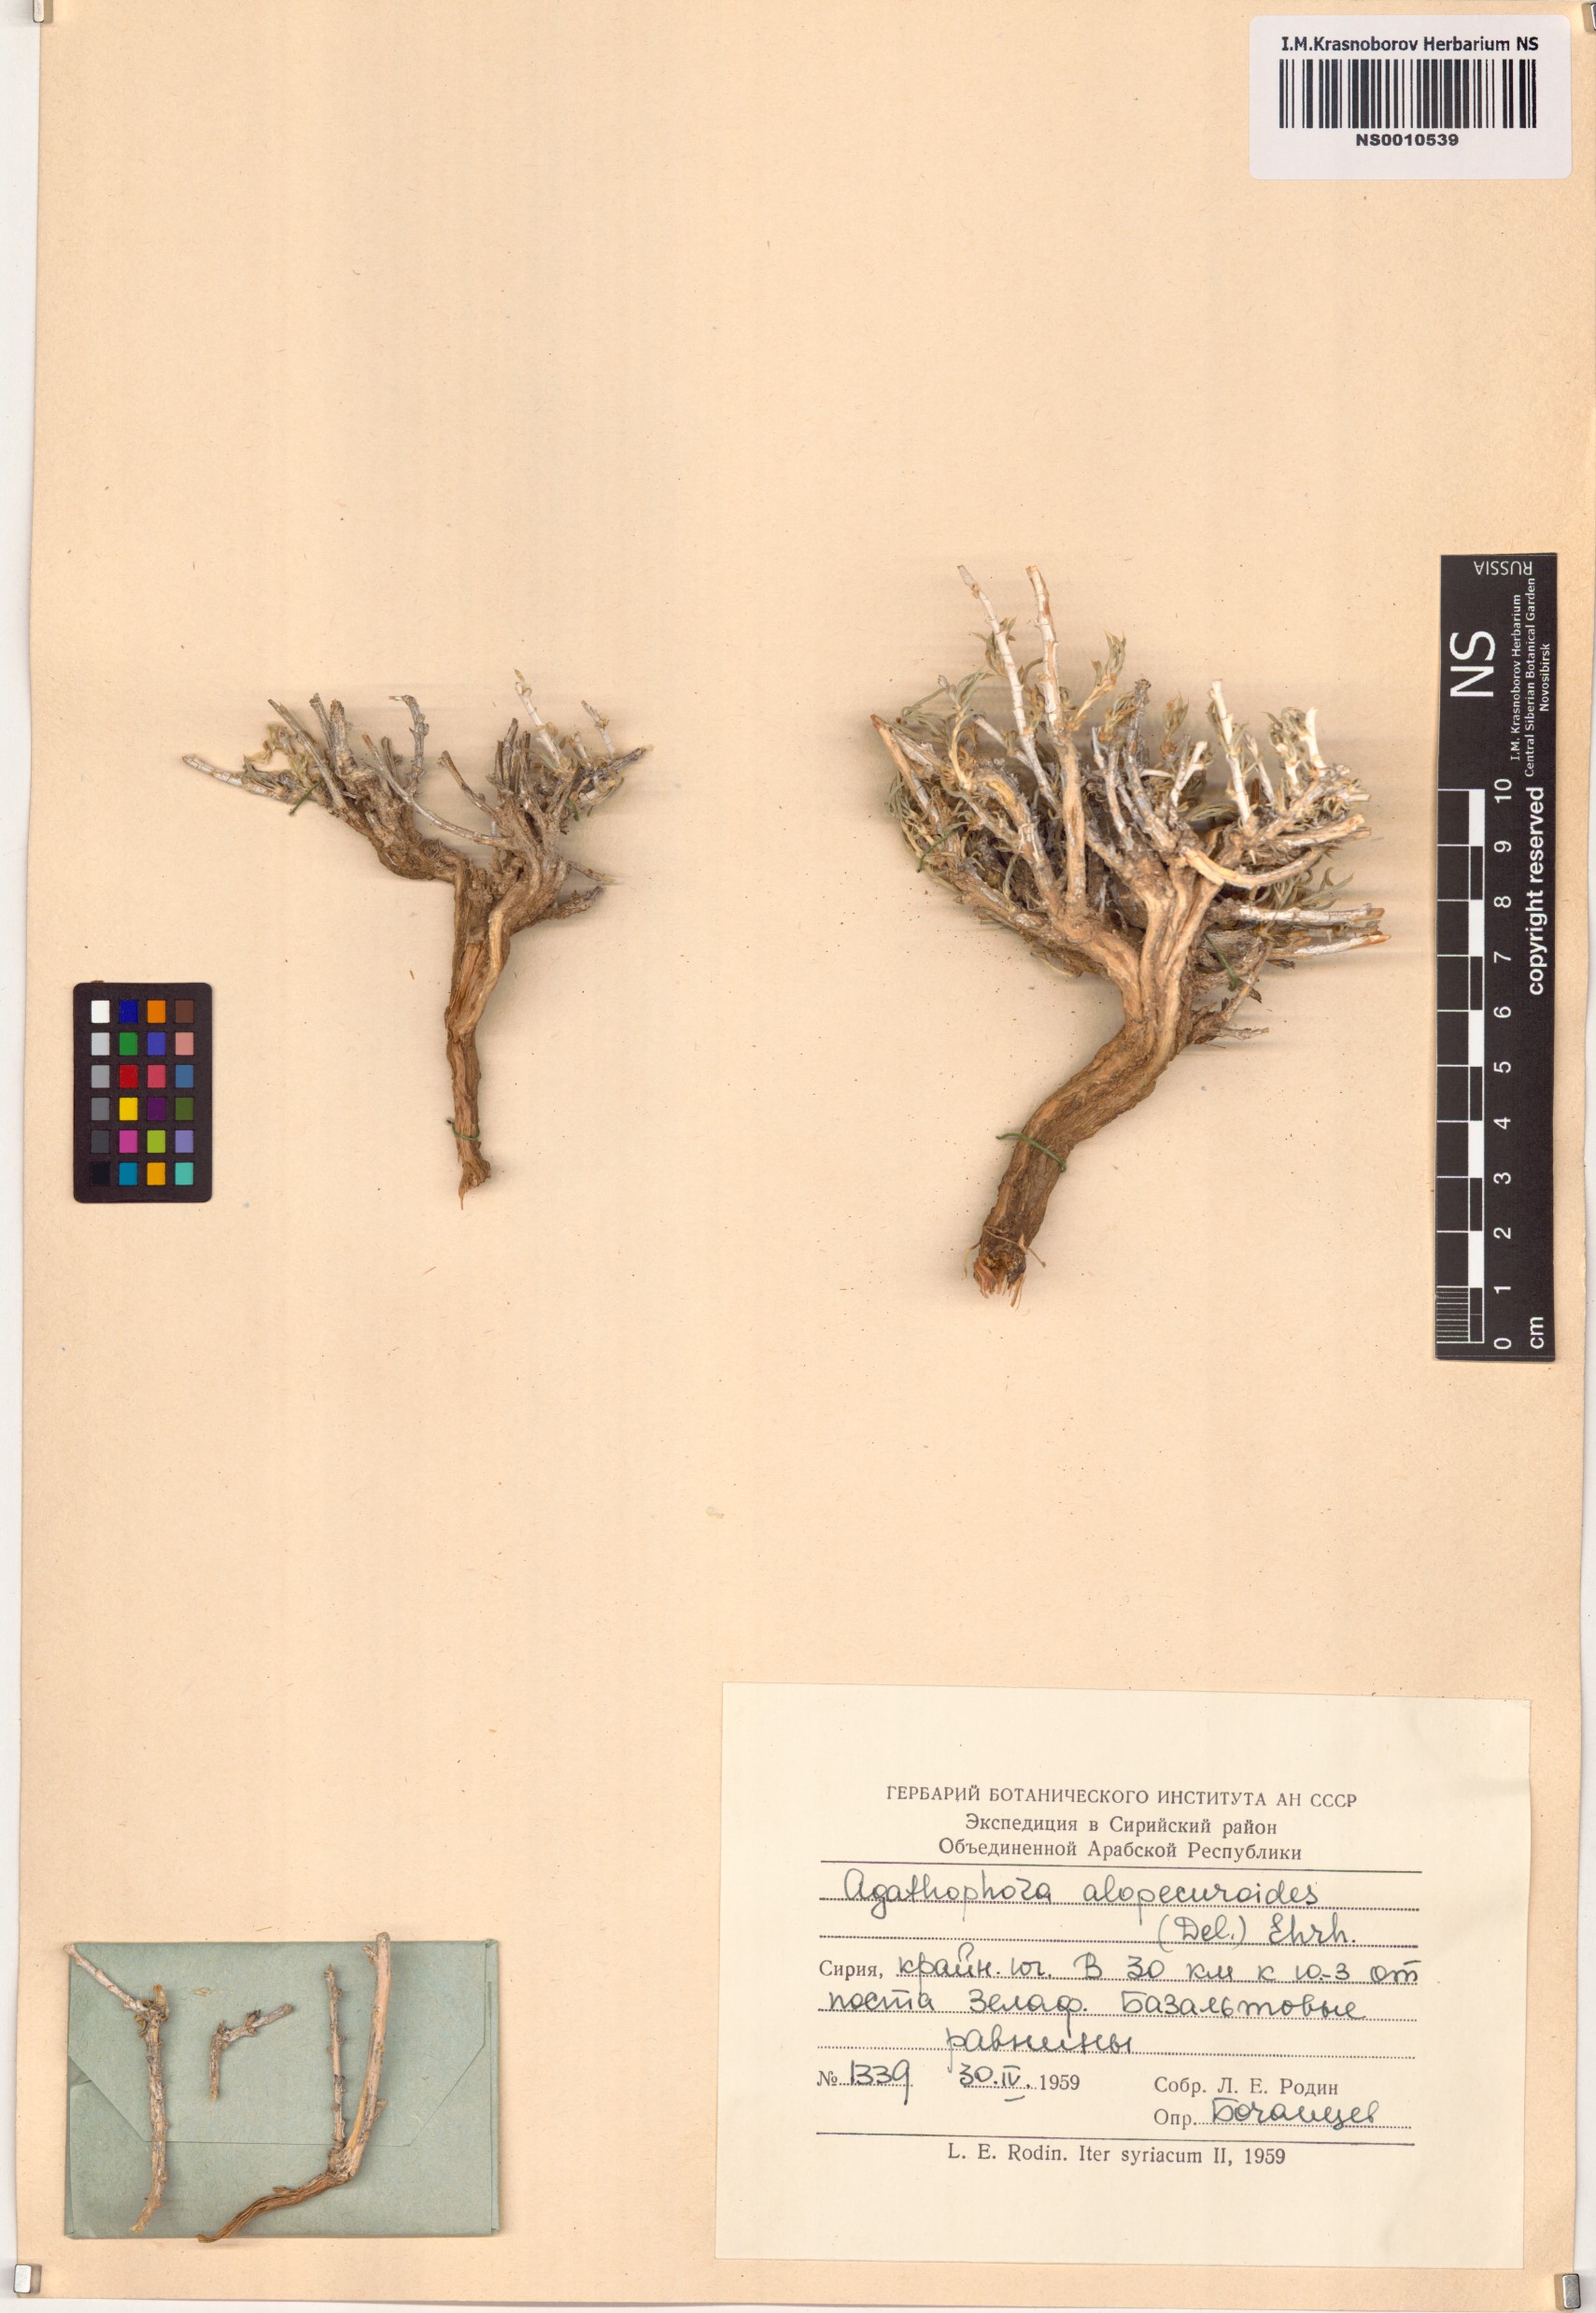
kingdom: Plantae
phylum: Tracheophyta
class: Magnoliopsida
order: Caryophyllales
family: Amaranthaceae
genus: Halogeton
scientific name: Halogeton alopecuroides
